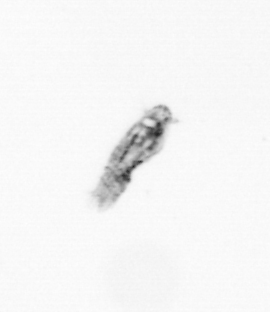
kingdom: Animalia
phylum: Arthropoda
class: Copepoda
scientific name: Copepoda
